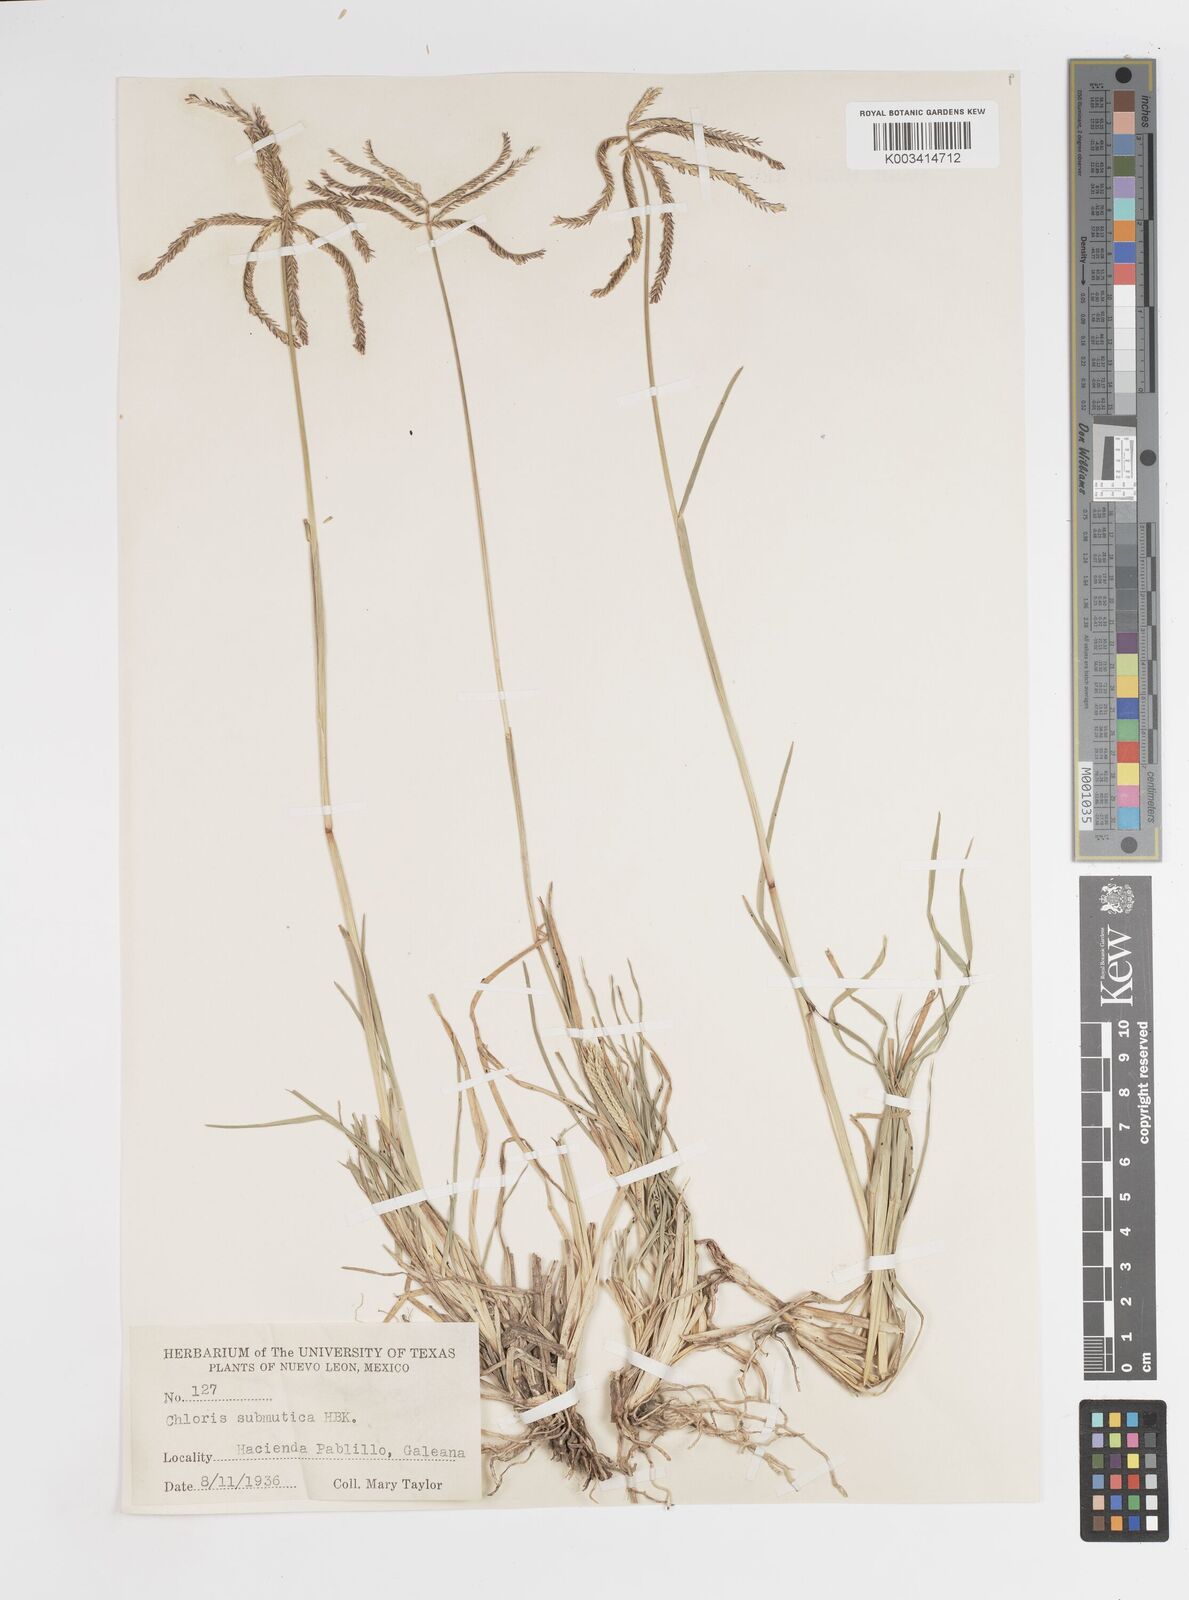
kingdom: Plantae
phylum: Tracheophyta
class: Liliopsida
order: Poales
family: Poaceae
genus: Chloris
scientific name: Chloris submutica
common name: Mexican windmill grass
